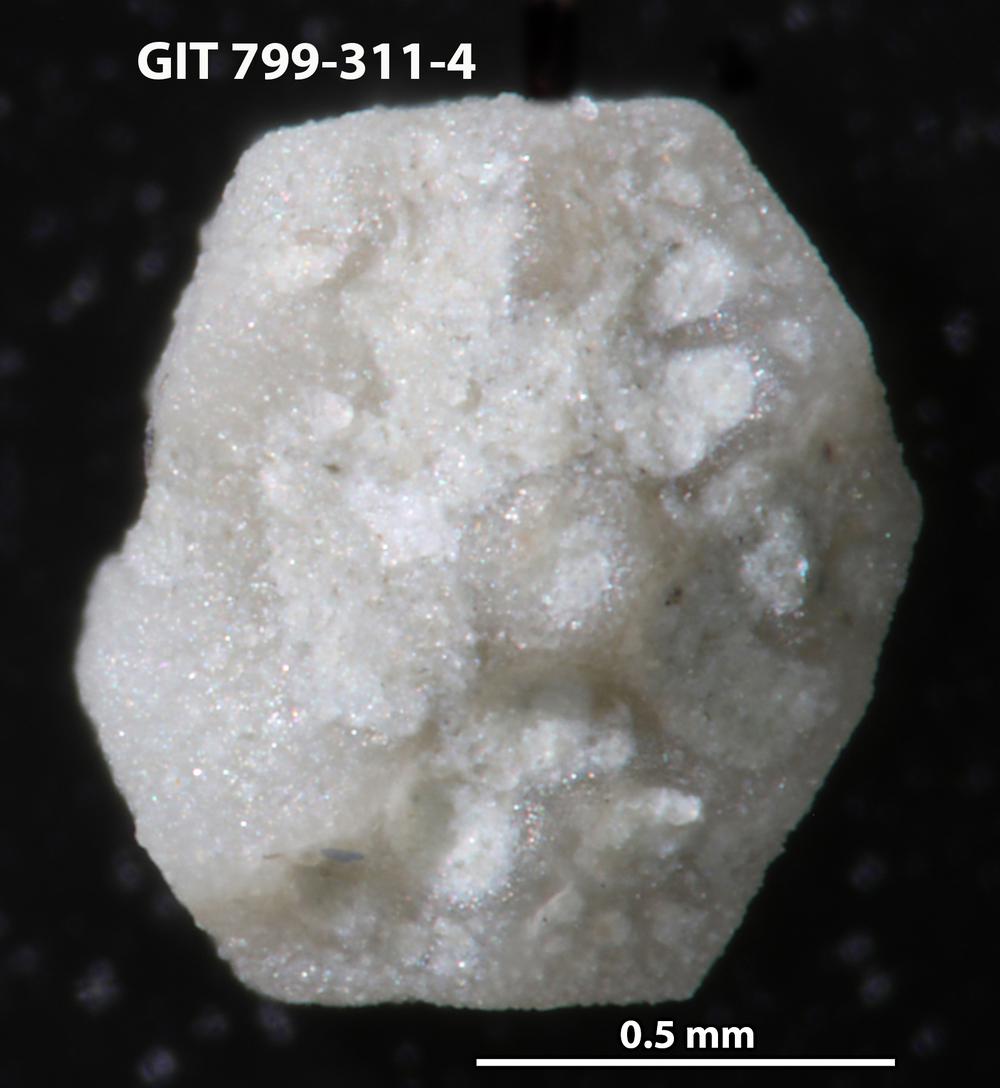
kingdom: Animalia
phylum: Echinodermata
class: Echinoidea
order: Bothriocidaroida
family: Bothriocidaridae
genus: Neobothriocidaris
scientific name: Neobothriocidaris
